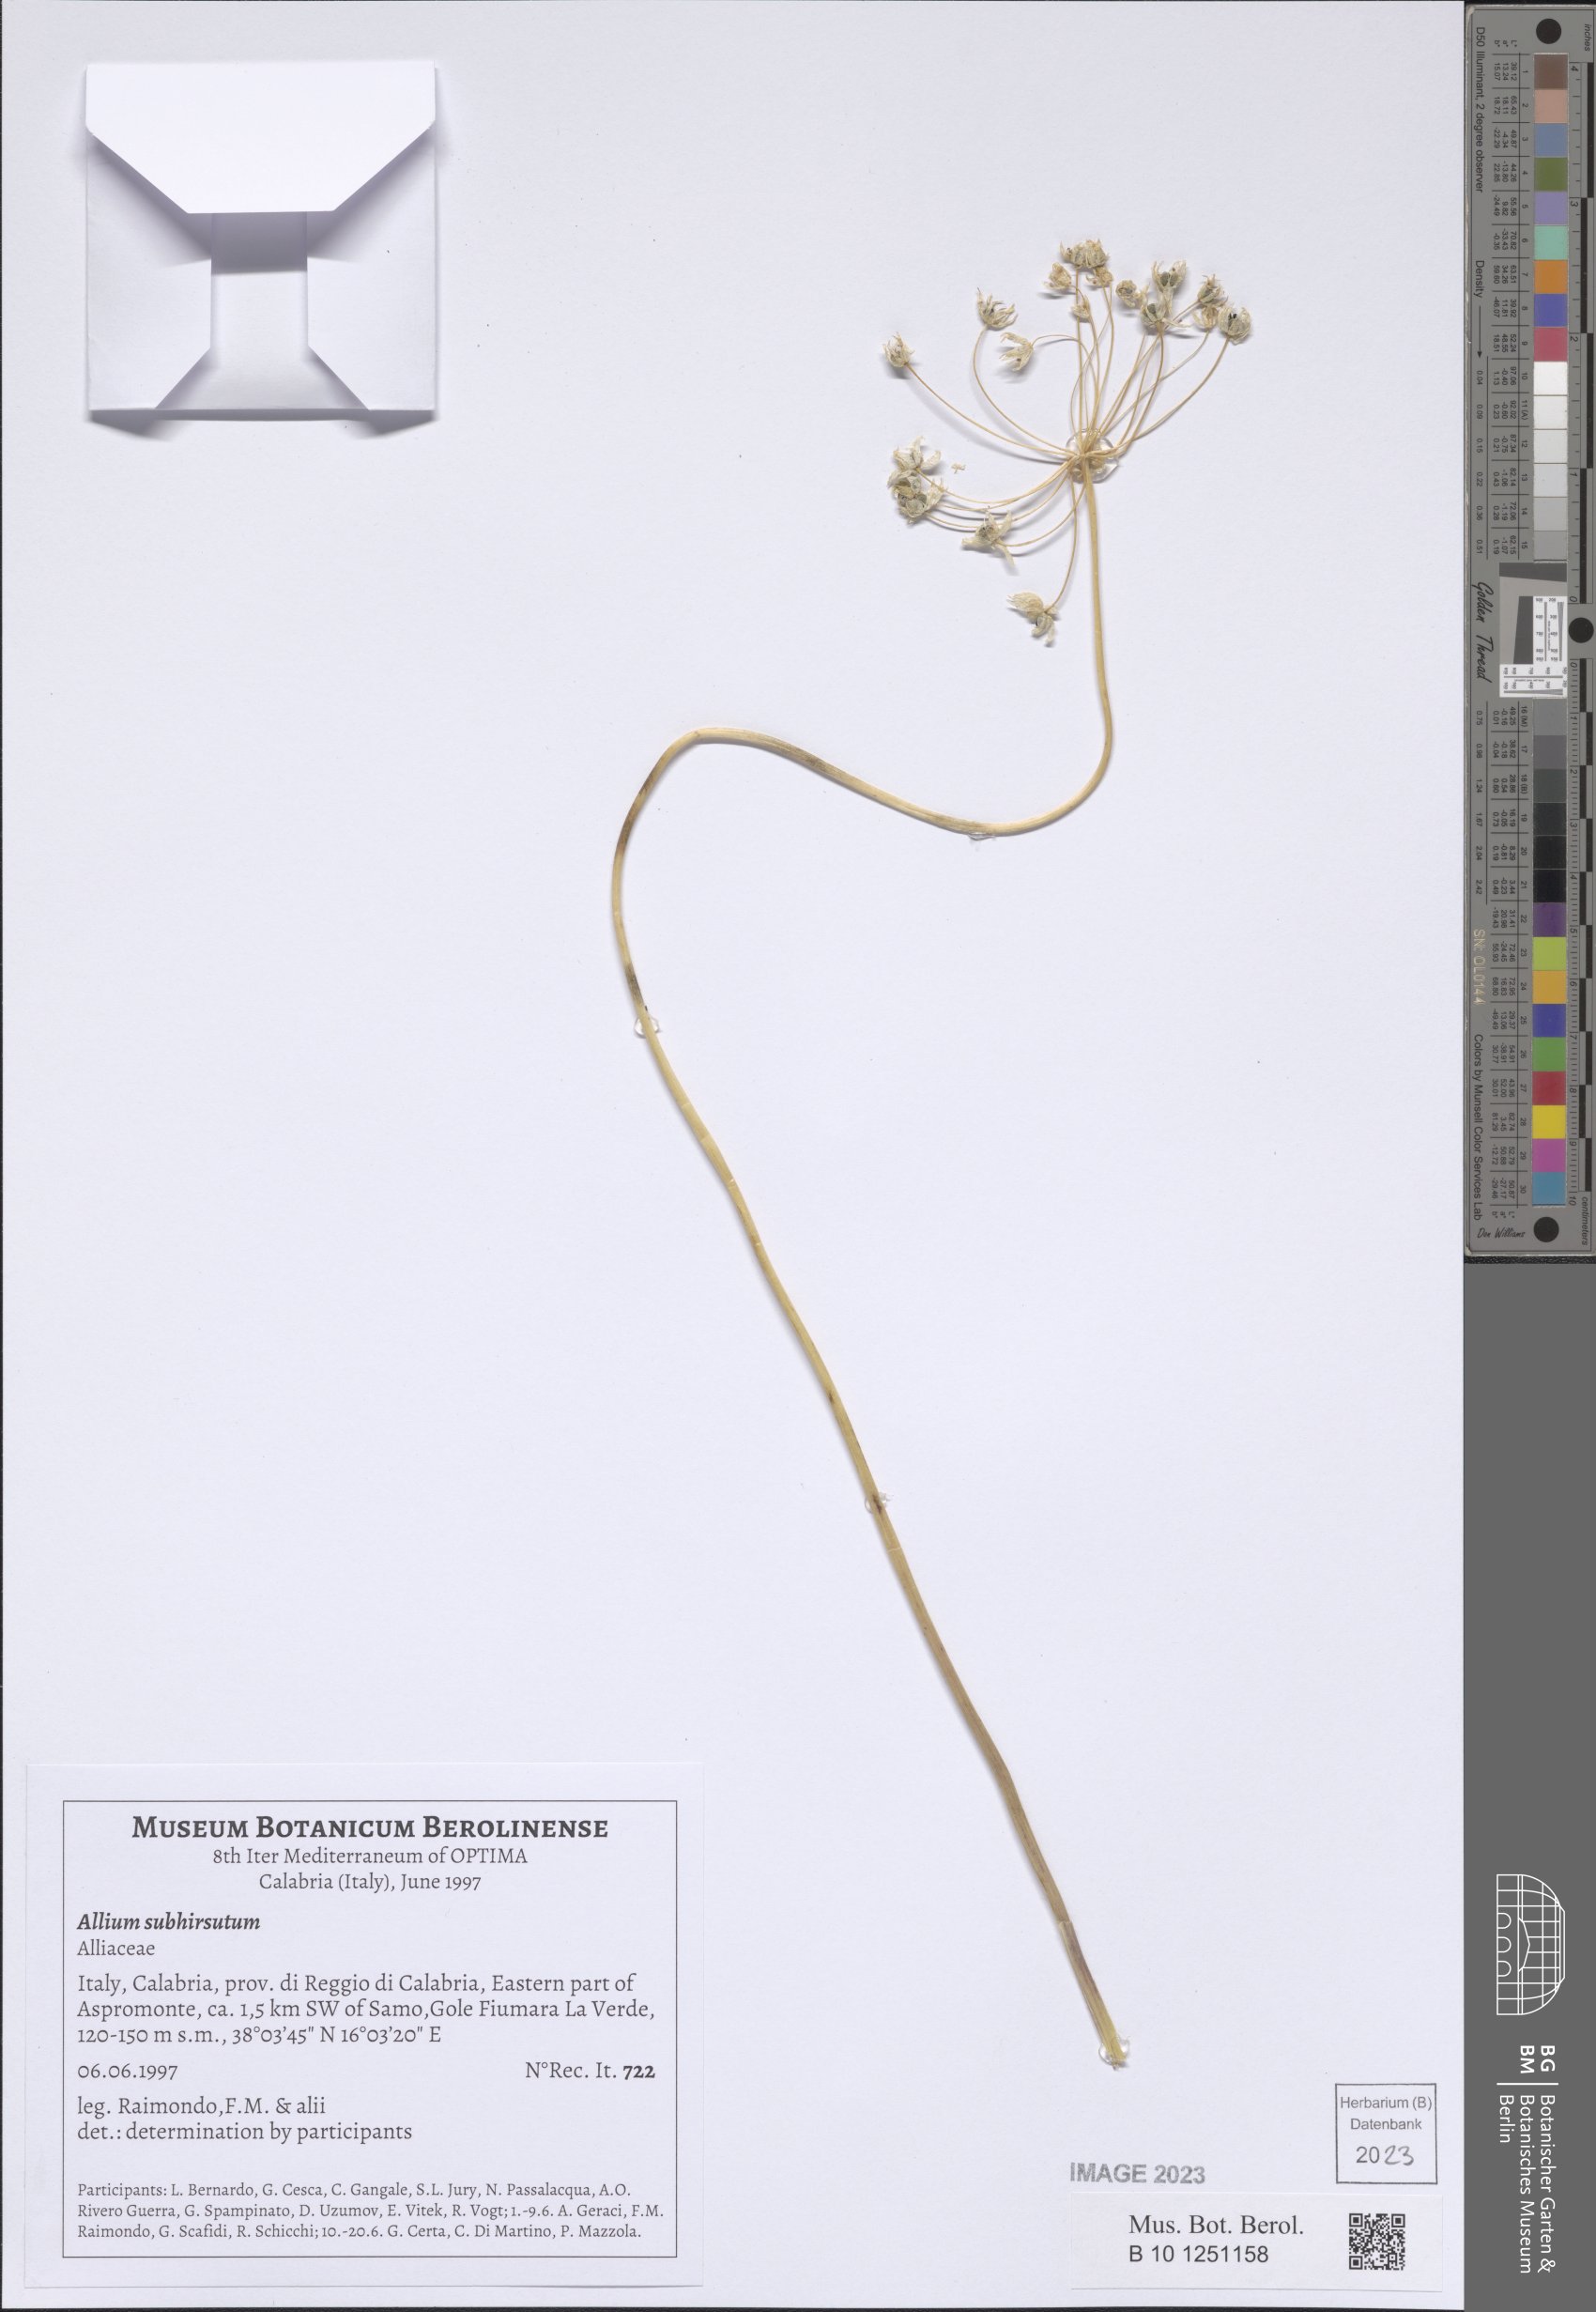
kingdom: Plantae
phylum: Tracheophyta
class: Liliopsida
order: Asparagales
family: Amaryllidaceae
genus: Allium
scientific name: Allium subhirsutum
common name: Hairy garlic
